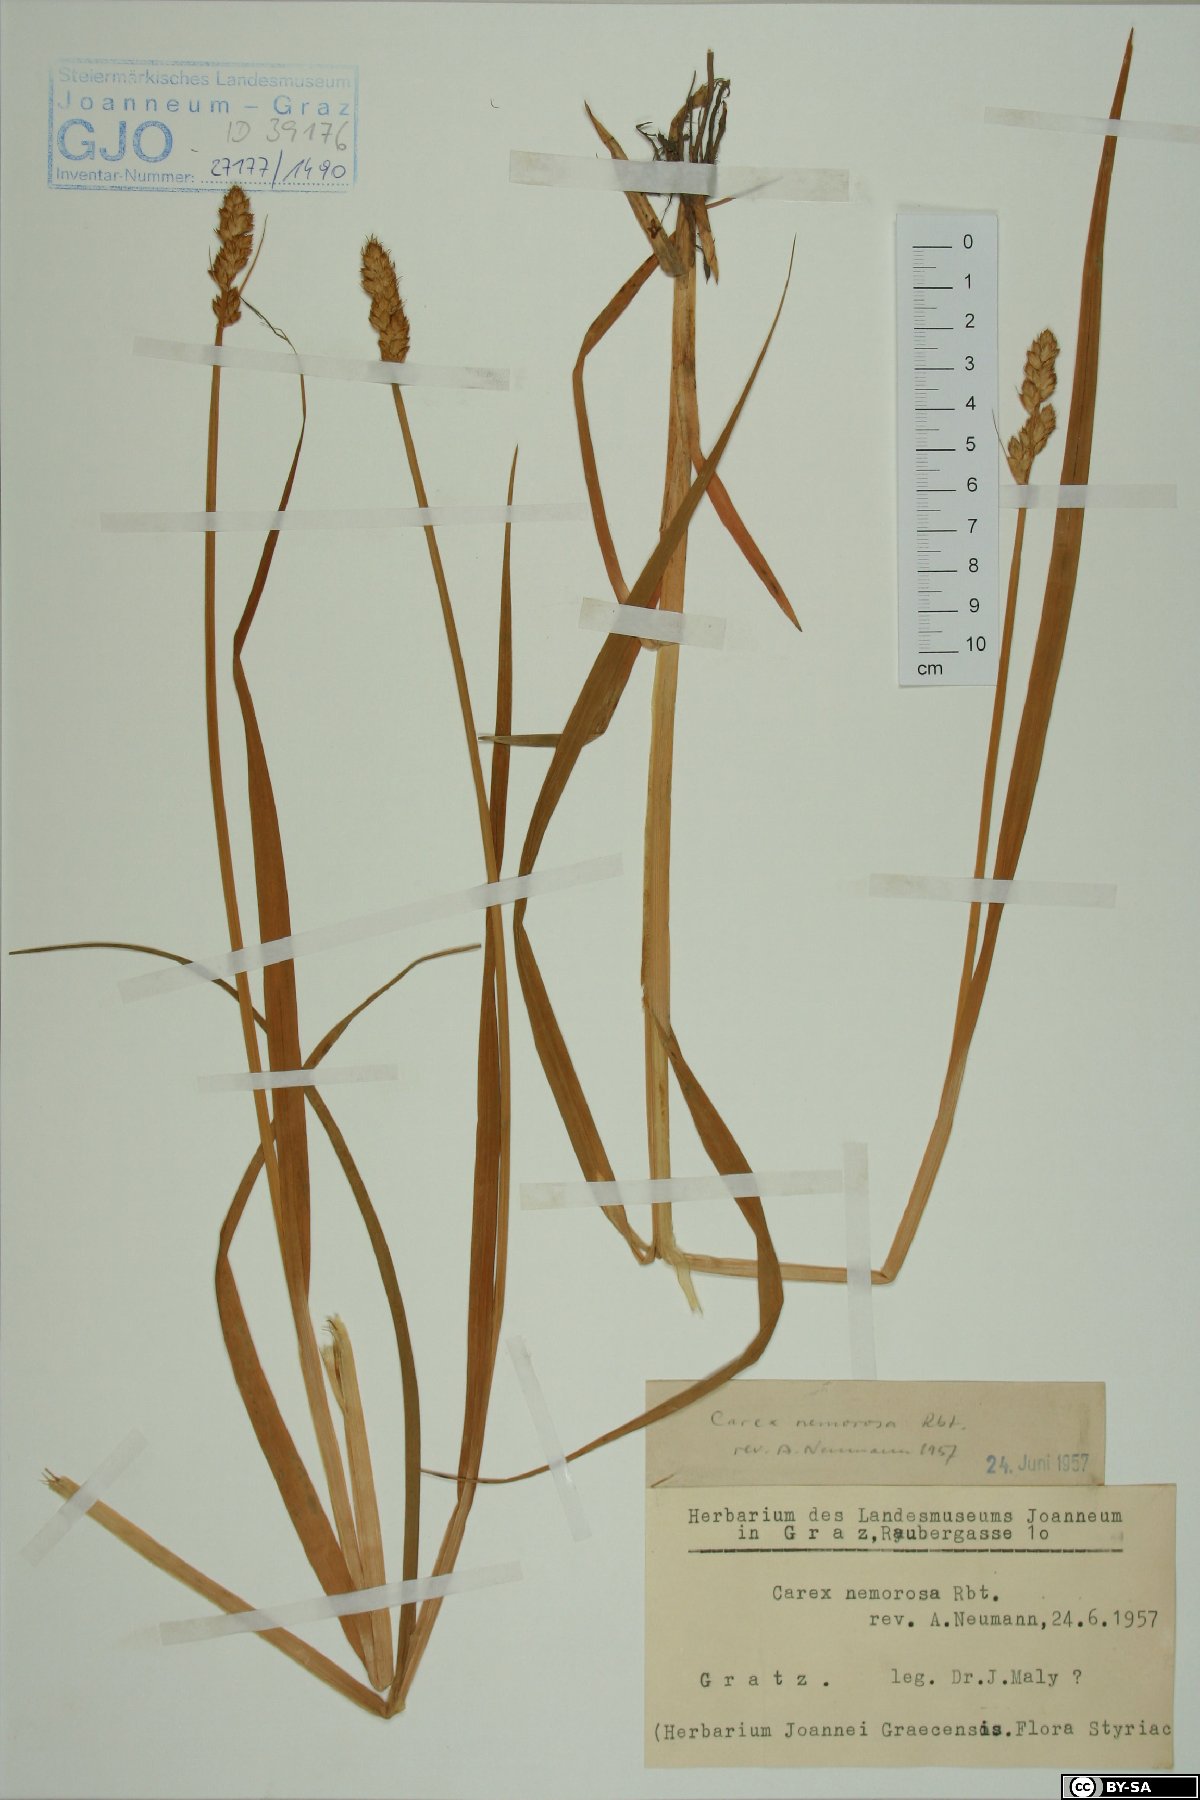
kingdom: Plantae
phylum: Tracheophyta
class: Liliopsida
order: Poales
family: Cyperaceae
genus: Carex
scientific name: Carex otrubae
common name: False fox-sedge
